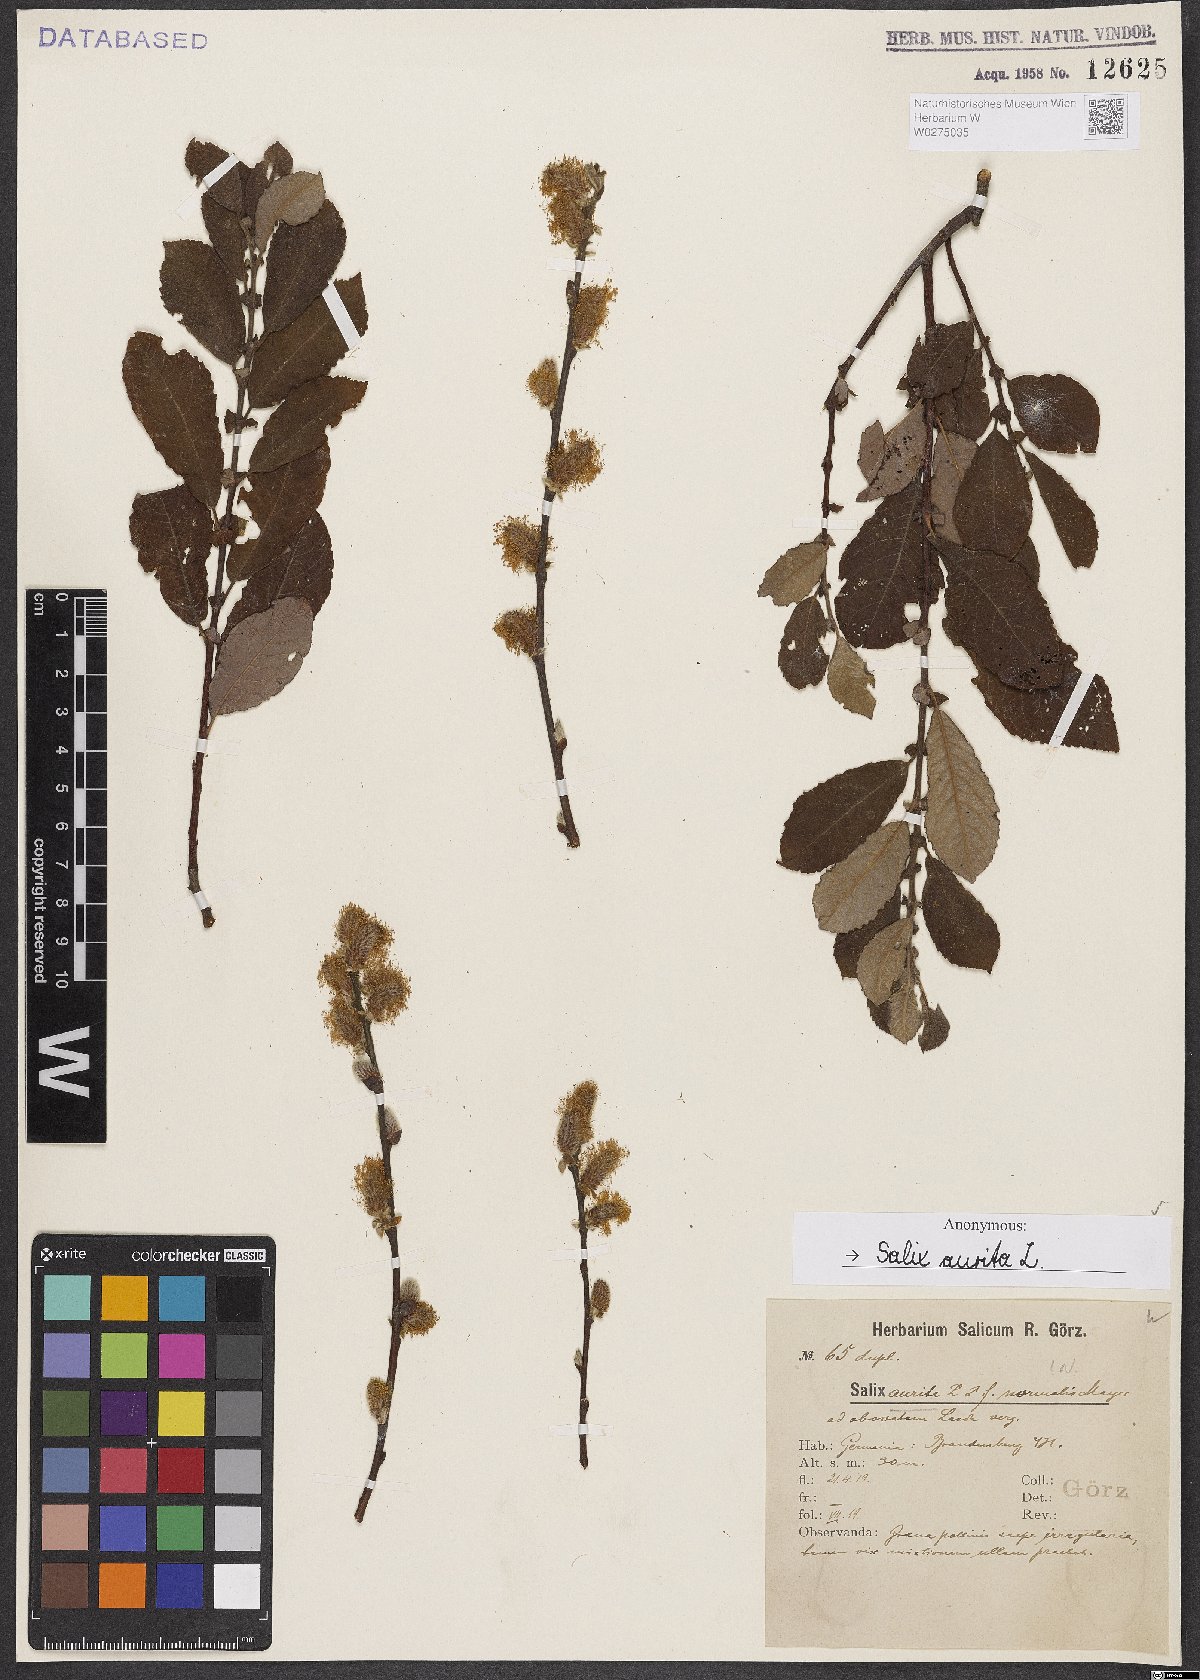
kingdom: Plantae
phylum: Tracheophyta
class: Magnoliopsida
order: Malpighiales
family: Salicaceae
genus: Salix
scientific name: Salix aurita
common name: Eared willow
